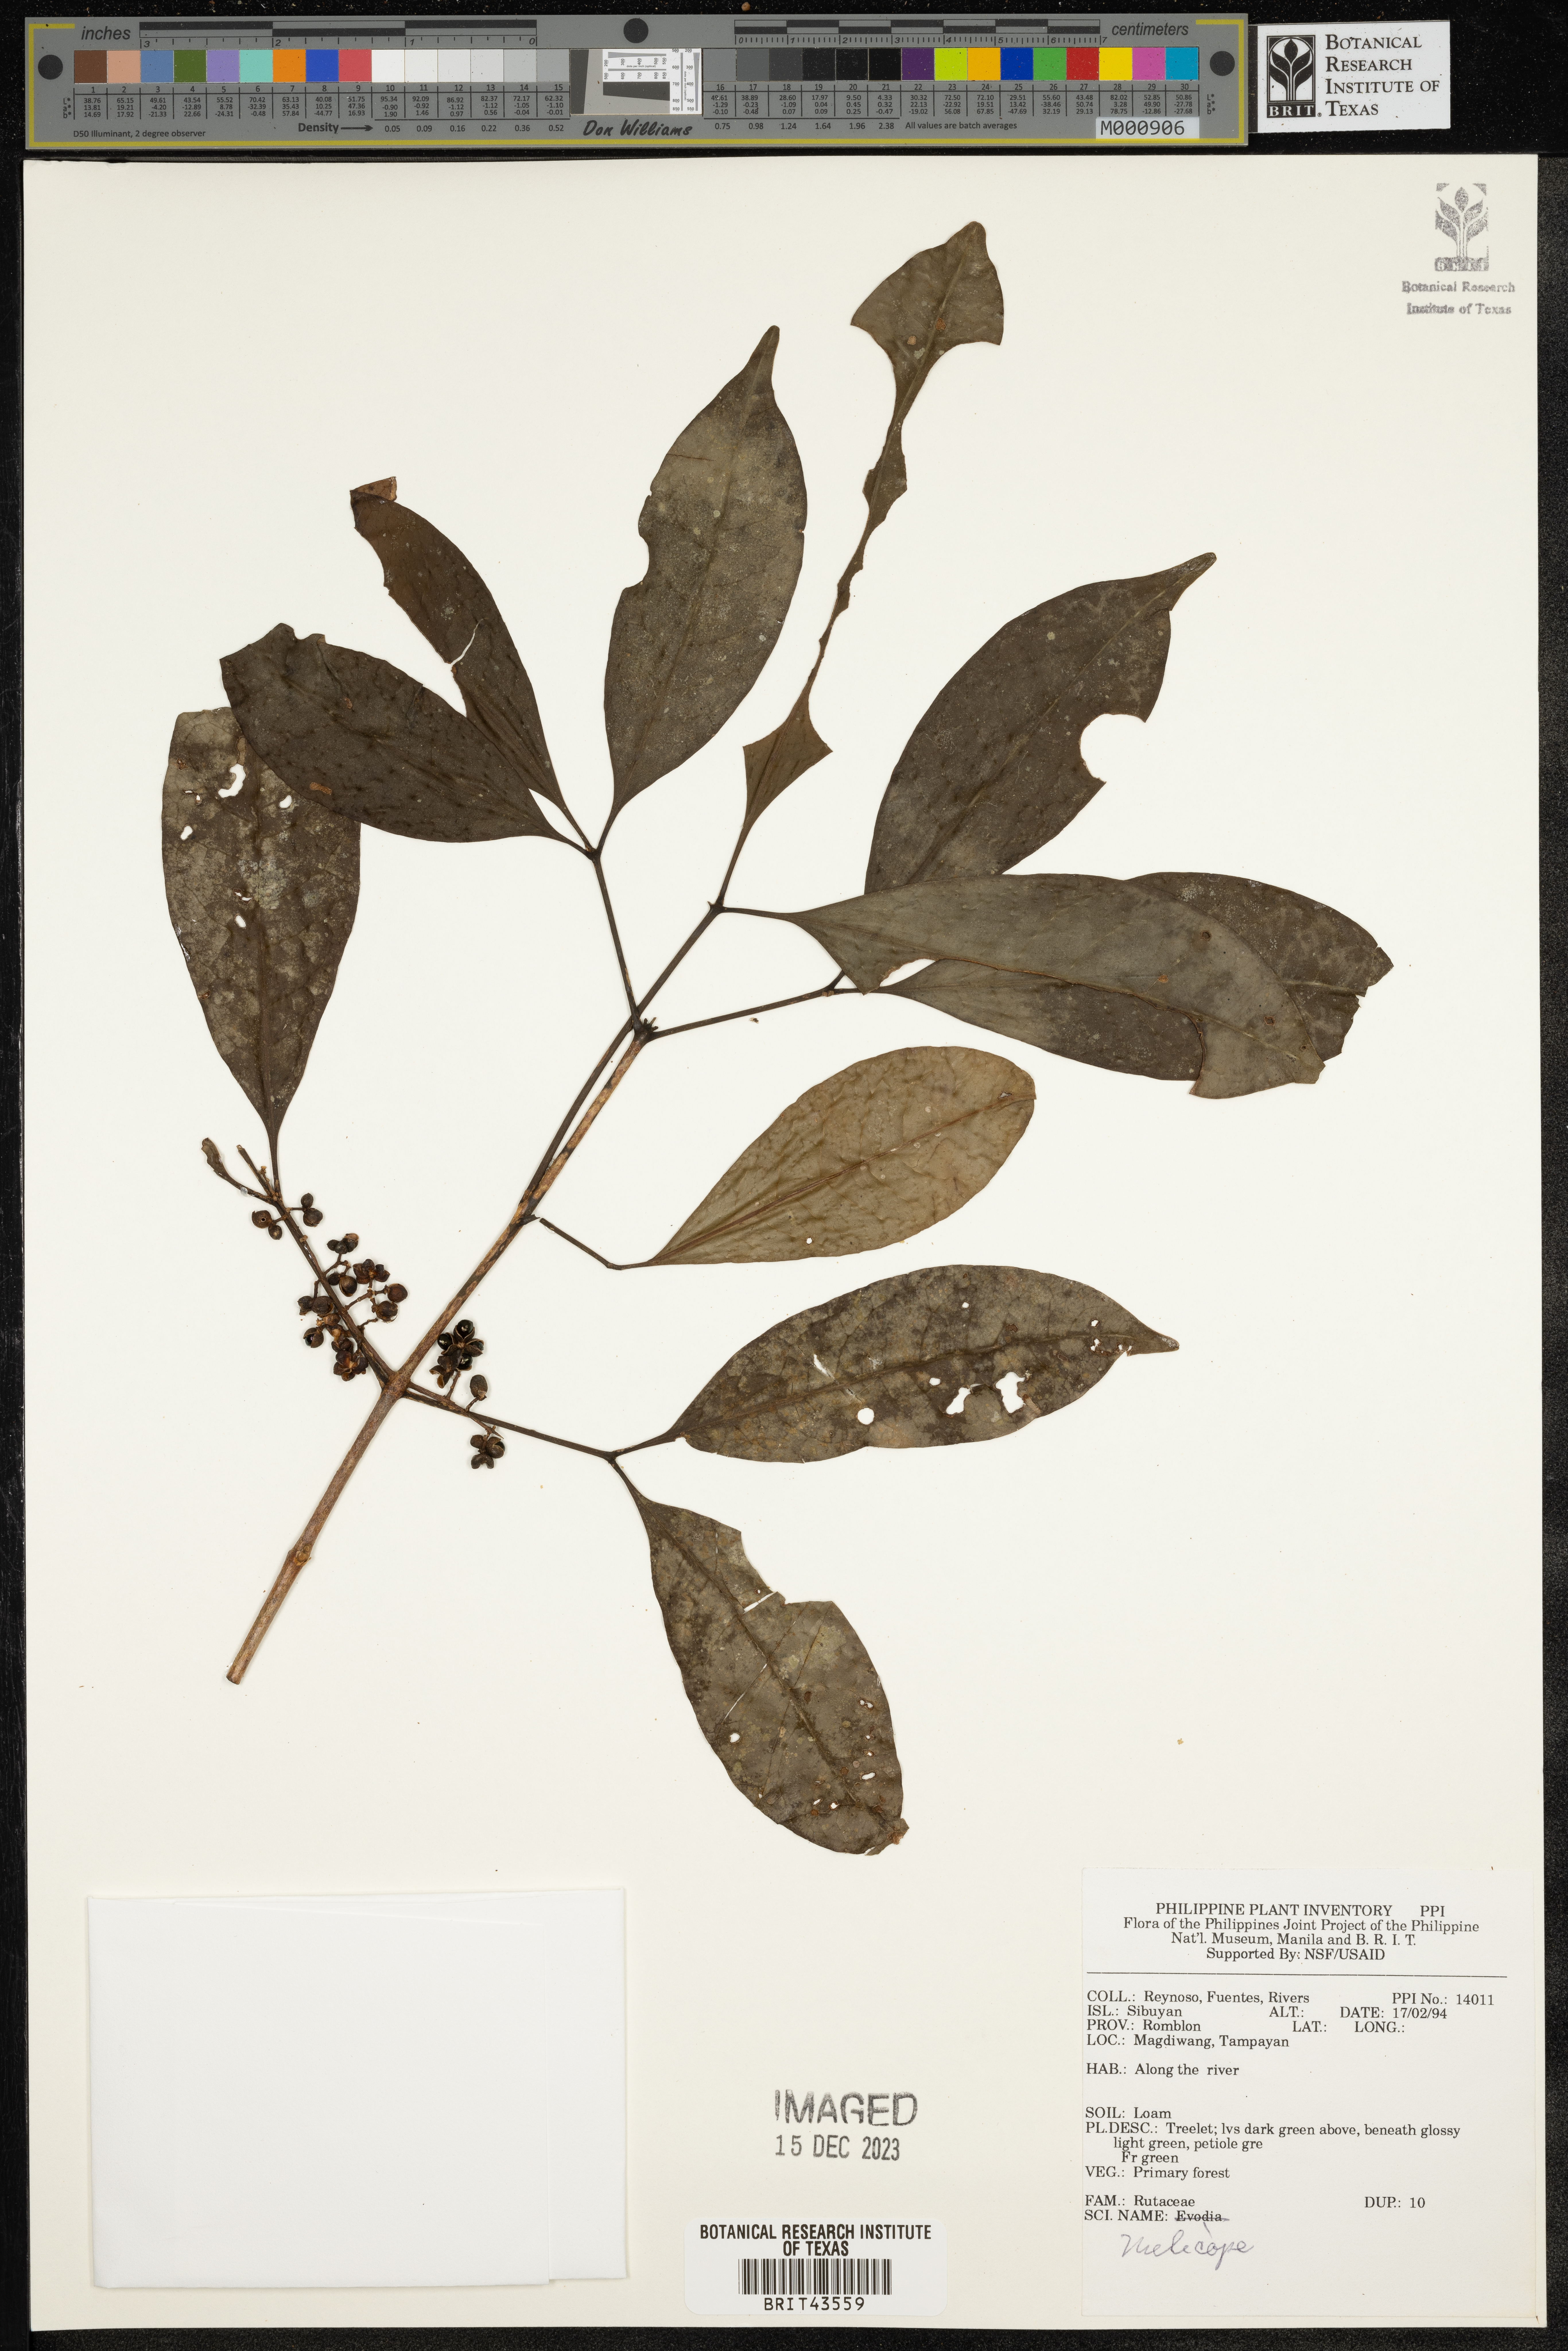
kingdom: Plantae
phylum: Tracheophyta
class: Magnoliopsida
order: Sapindales
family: Rutaceae
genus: Melicope
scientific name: Melicope
